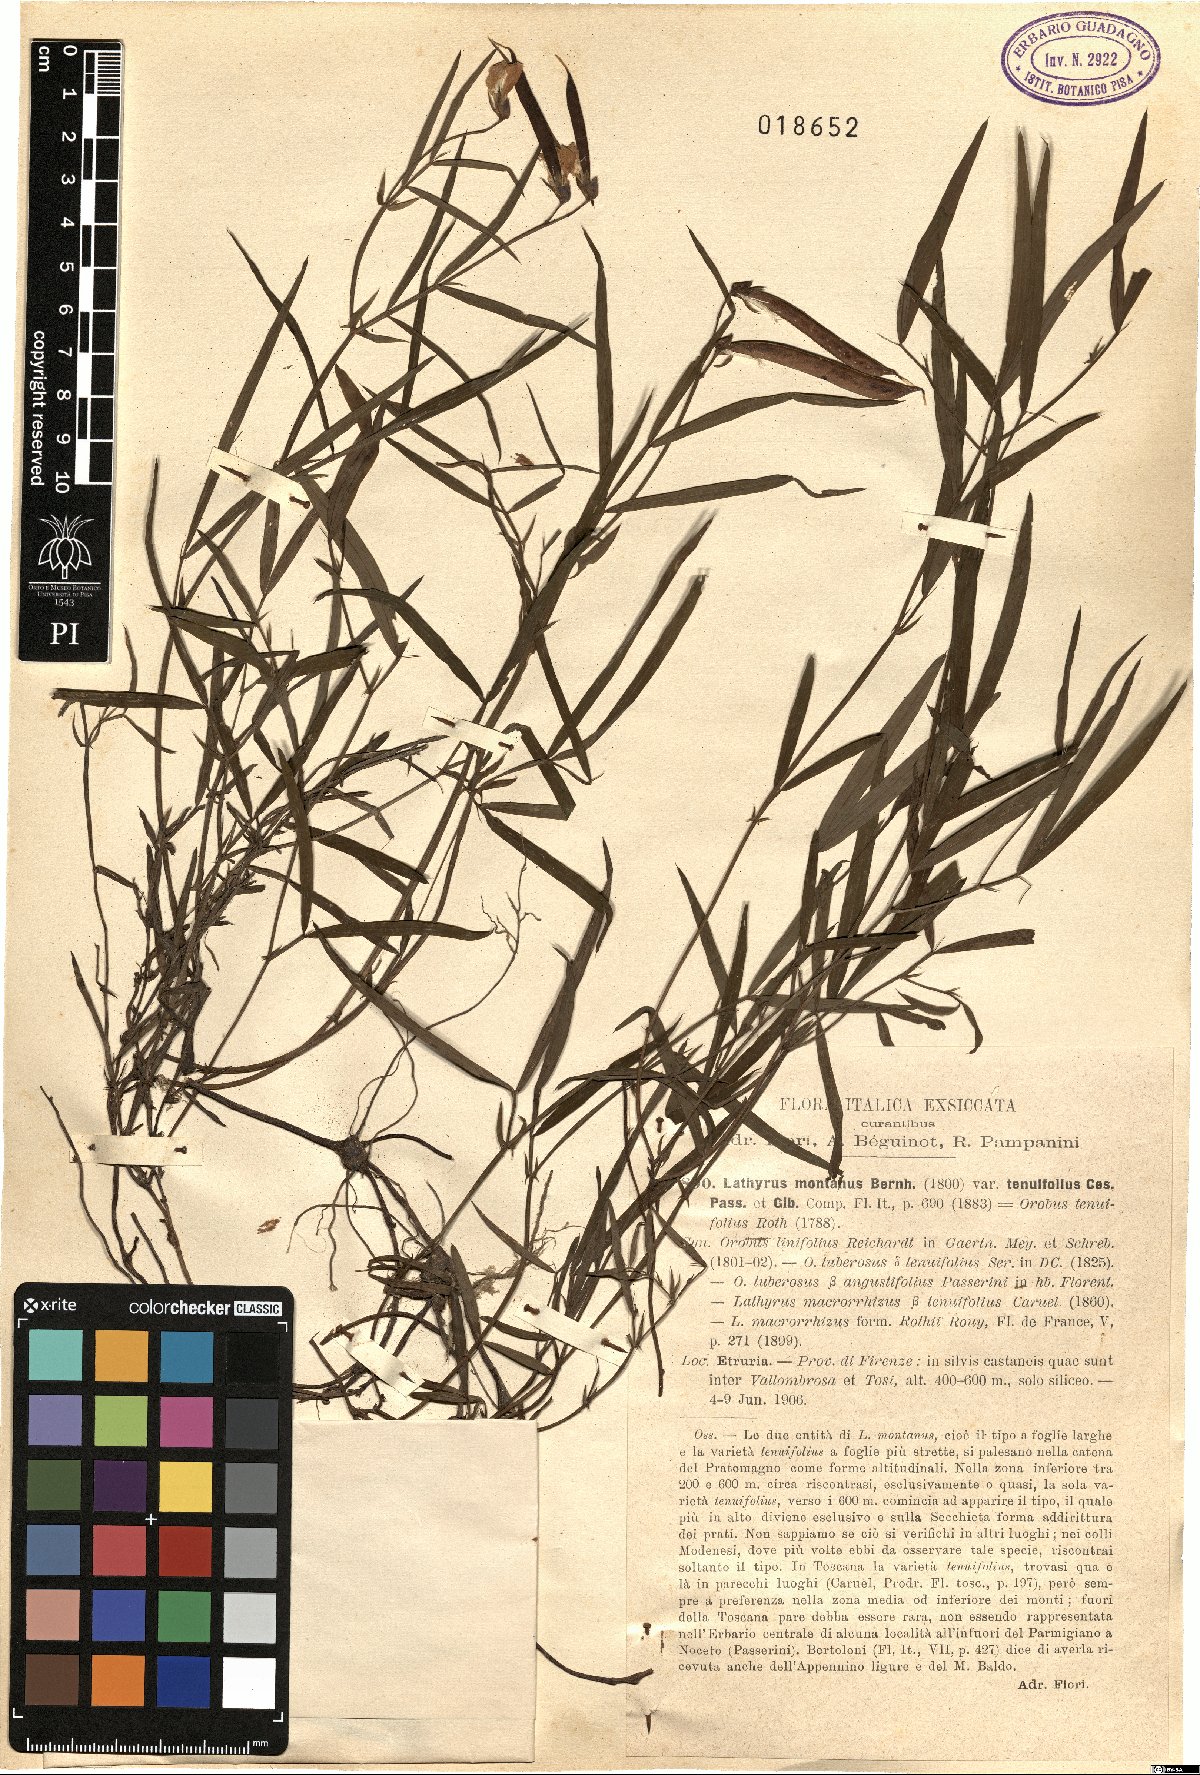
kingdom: Plantae
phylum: Tracheophyta
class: Magnoliopsida
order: Fabales
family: Fabaceae
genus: Lathyrus
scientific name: Lathyrus clymenum
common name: Spanish vetchling
